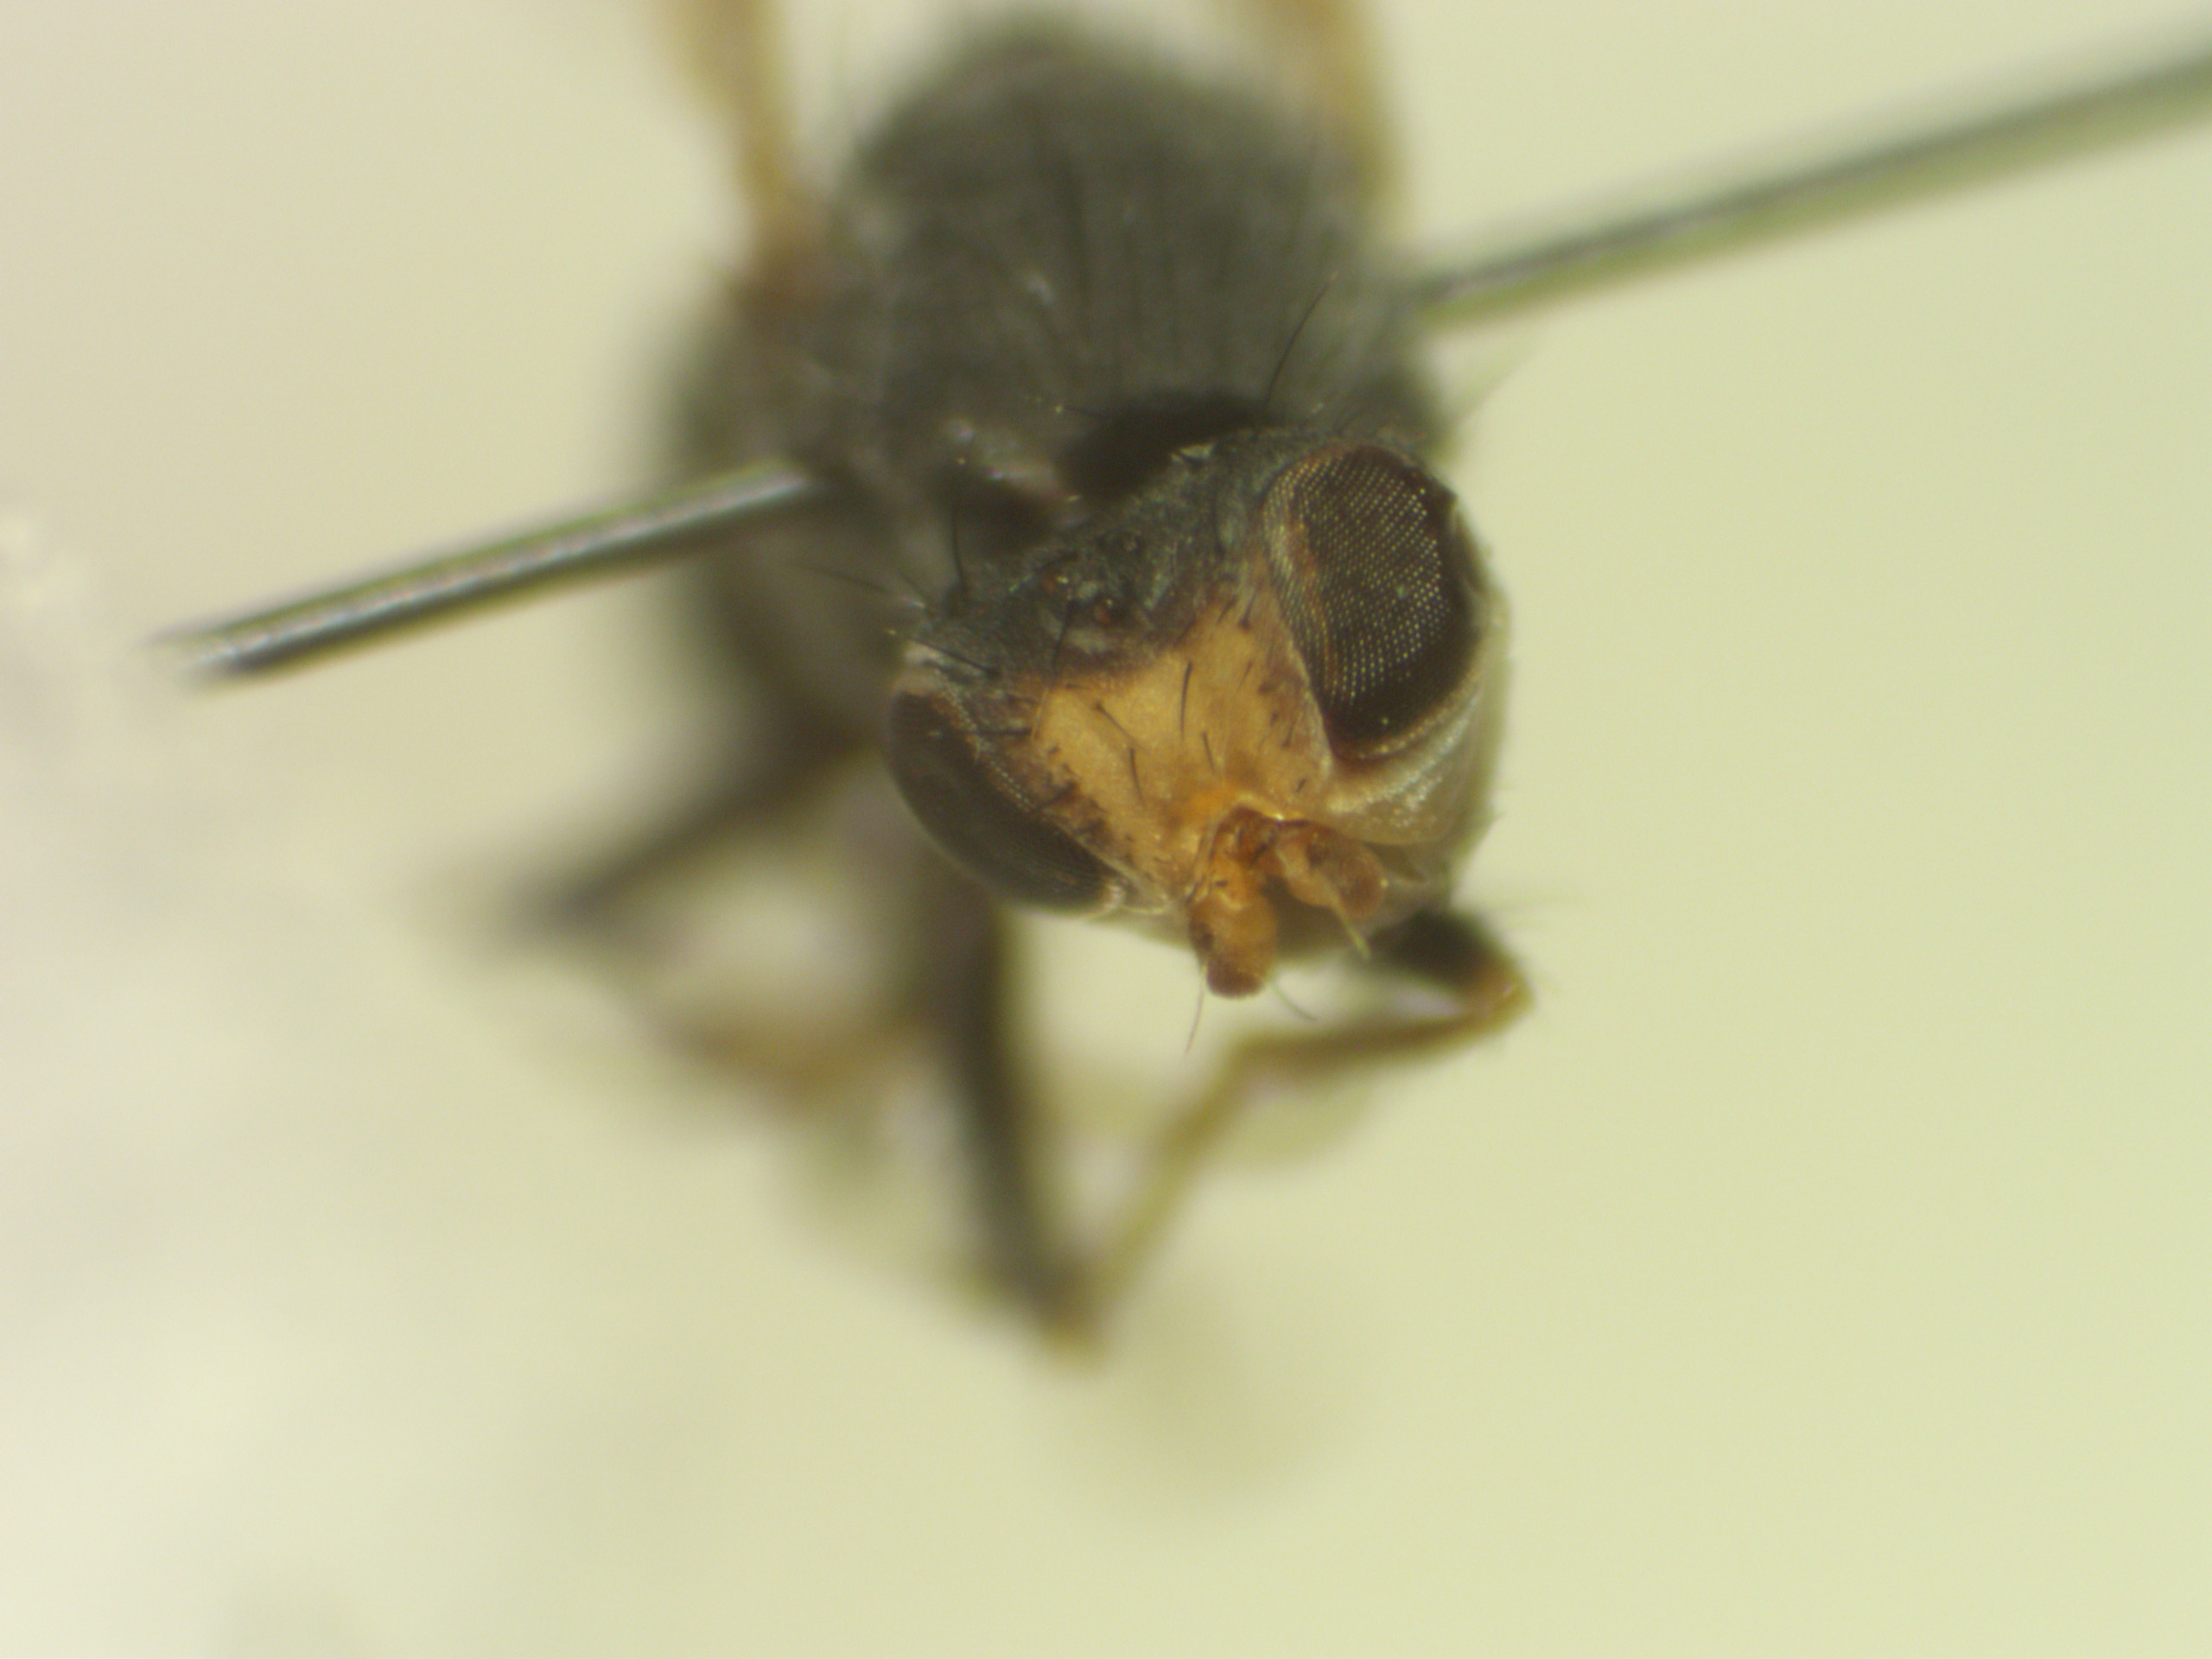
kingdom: Animalia
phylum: Arthropoda
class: Insecta
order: Diptera
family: Canacidae
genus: Tethina
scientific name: Tethina grisea
